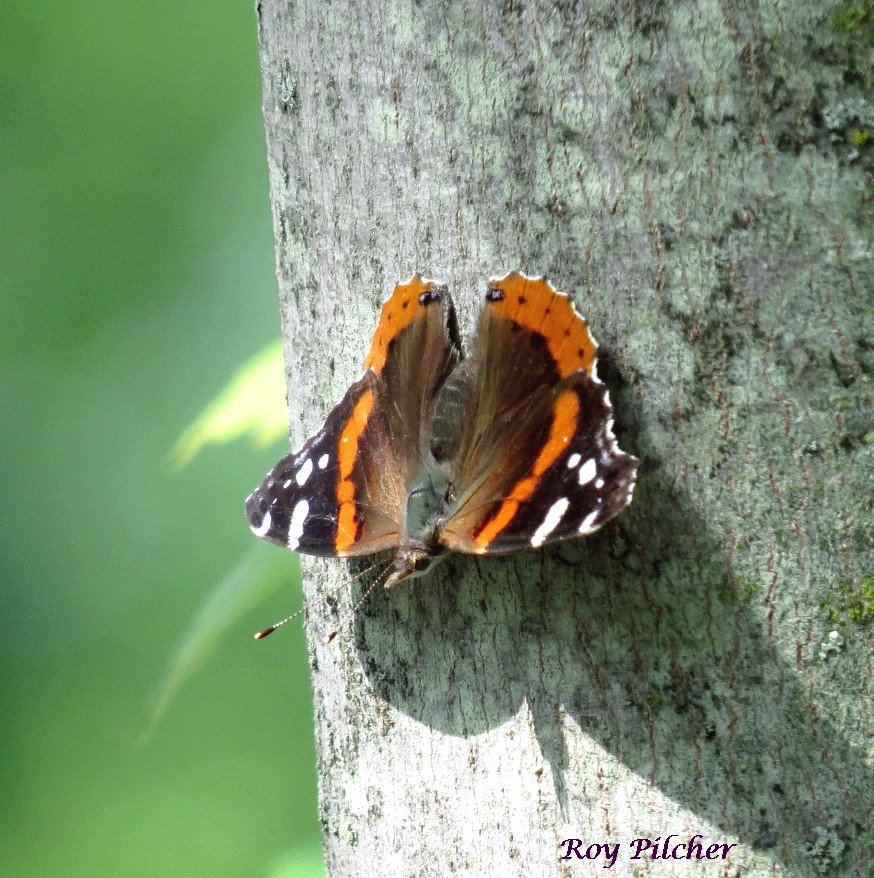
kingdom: Animalia
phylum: Arthropoda
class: Insecta
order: Lepidoptera
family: Nymphalidae
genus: Vanessa
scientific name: Vanessa atalanta
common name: Red Admiral
